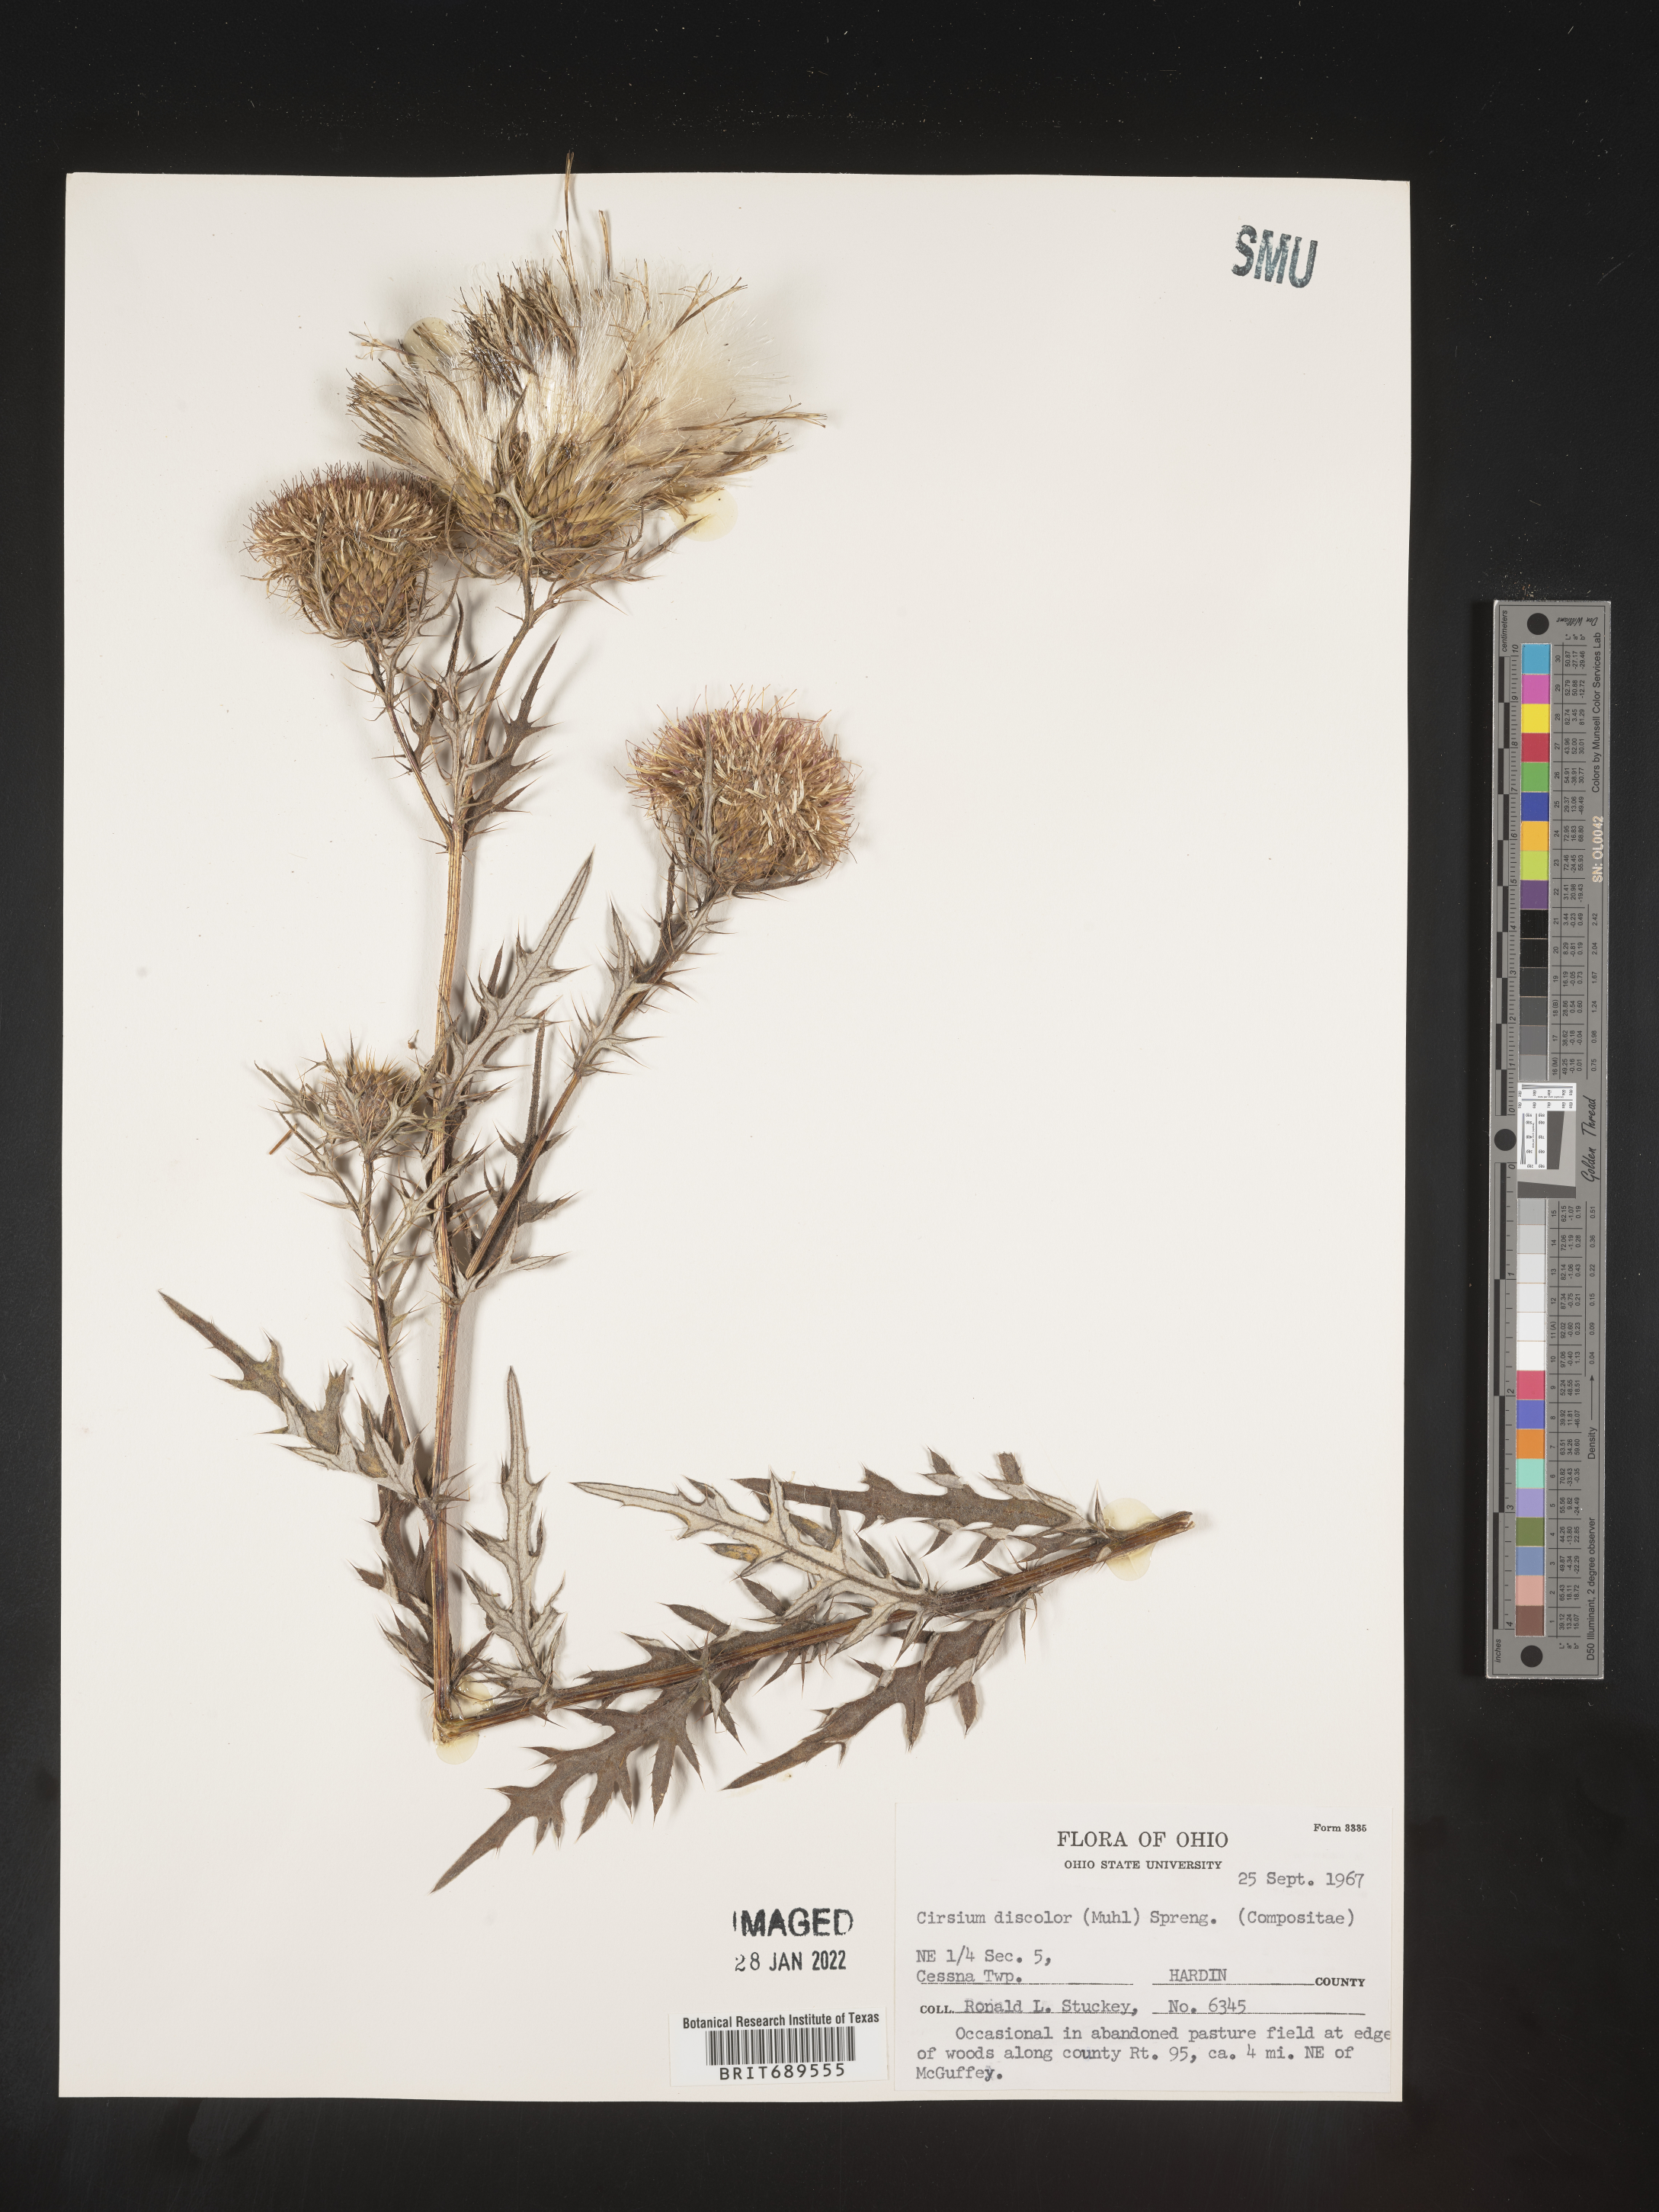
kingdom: Plantae
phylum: Tracheophyta
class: Magnoliopsida
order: Asterales
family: Asteraceae
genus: Cirsium
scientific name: Cirsium discolor
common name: Field thistle
